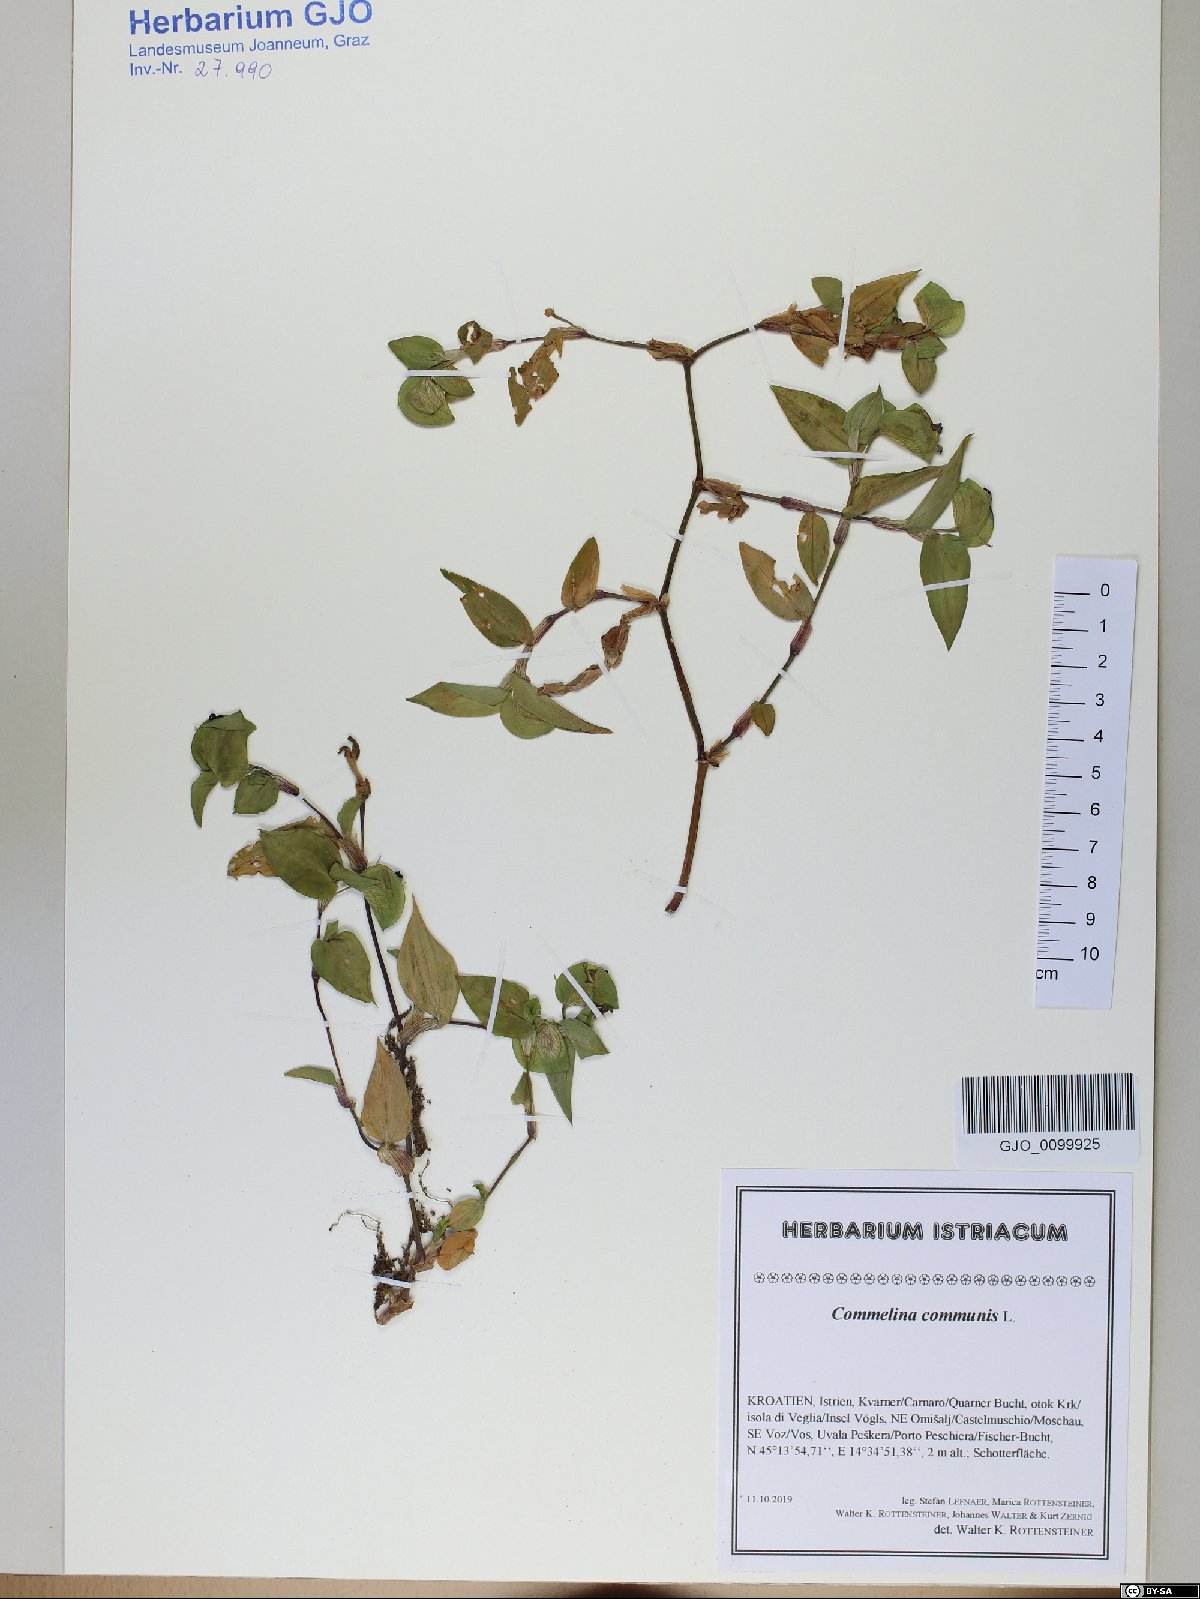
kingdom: Plantae
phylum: Tracheophyta
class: Liliopsida
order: Commelinales
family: Commelinaceae
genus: Commelina
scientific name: Commelina communis
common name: Asiatic dayflower
